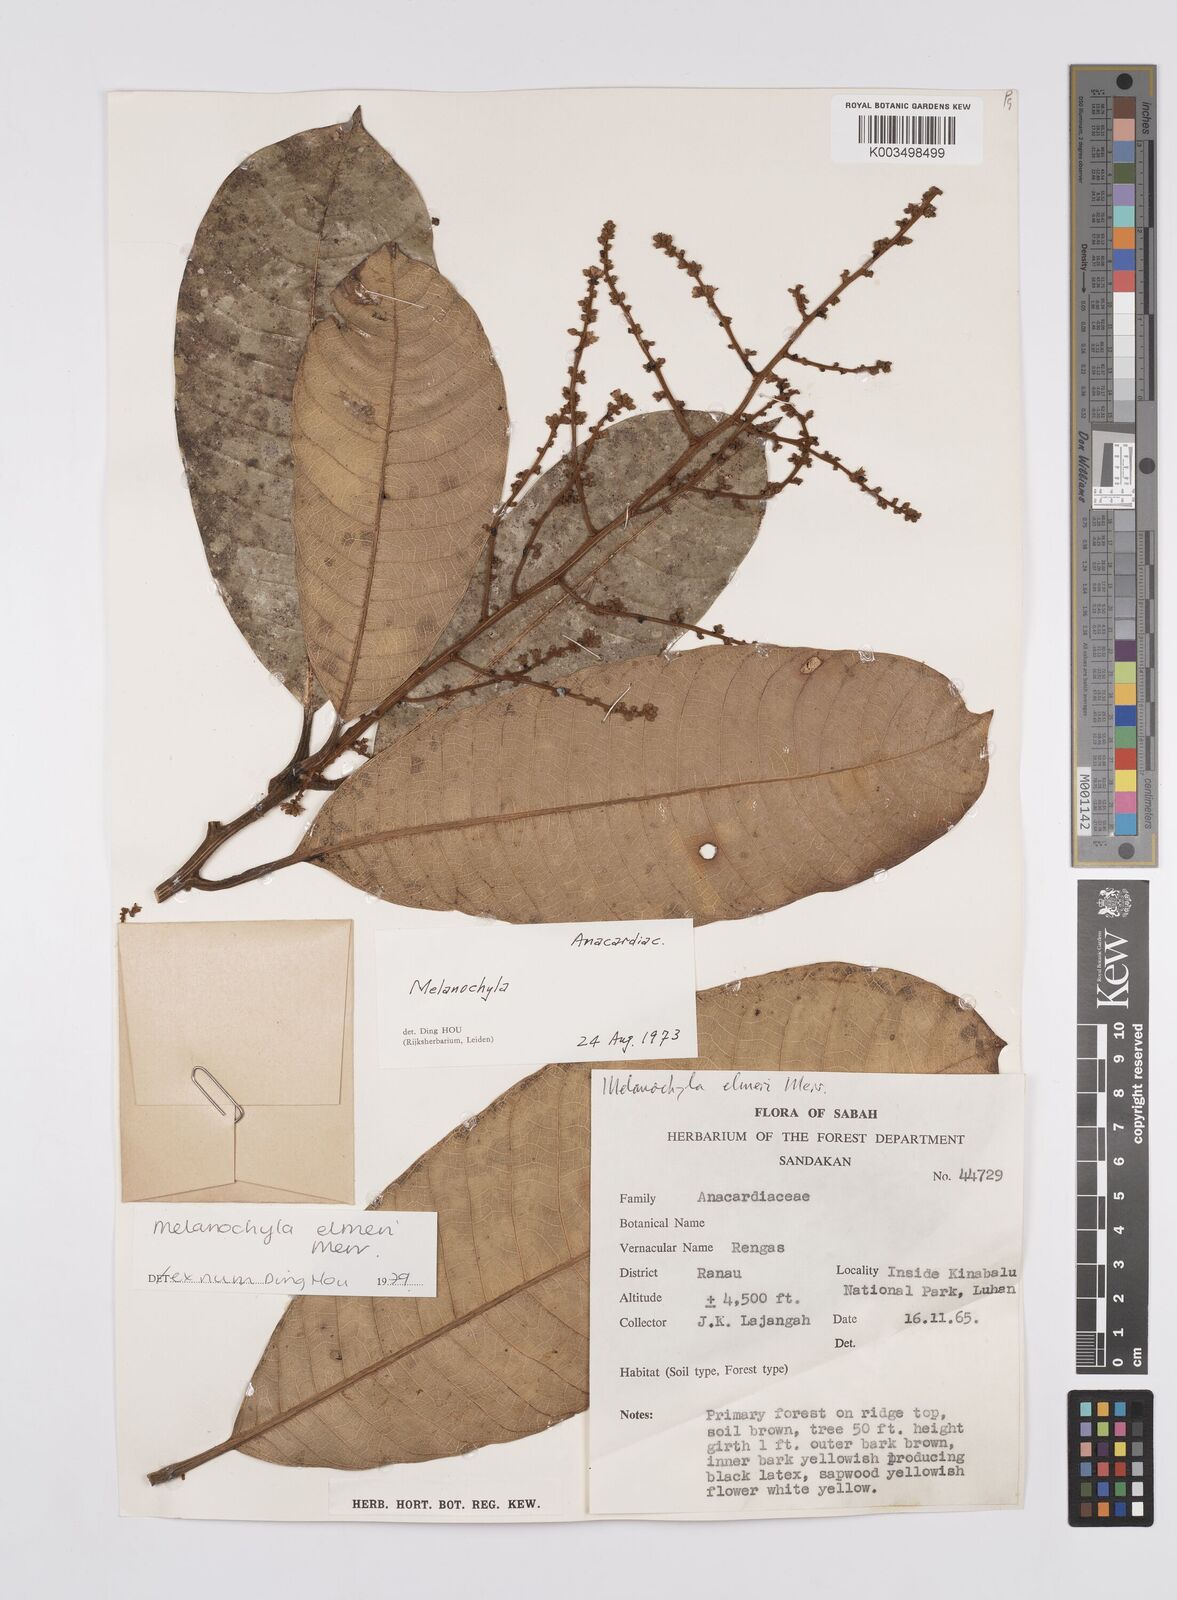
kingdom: Plantae
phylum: Tracheophyta
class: Magnoliopsida
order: Sapindales
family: Anacardiaceae
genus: Melanochyla
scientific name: Melanochyla elmeri
